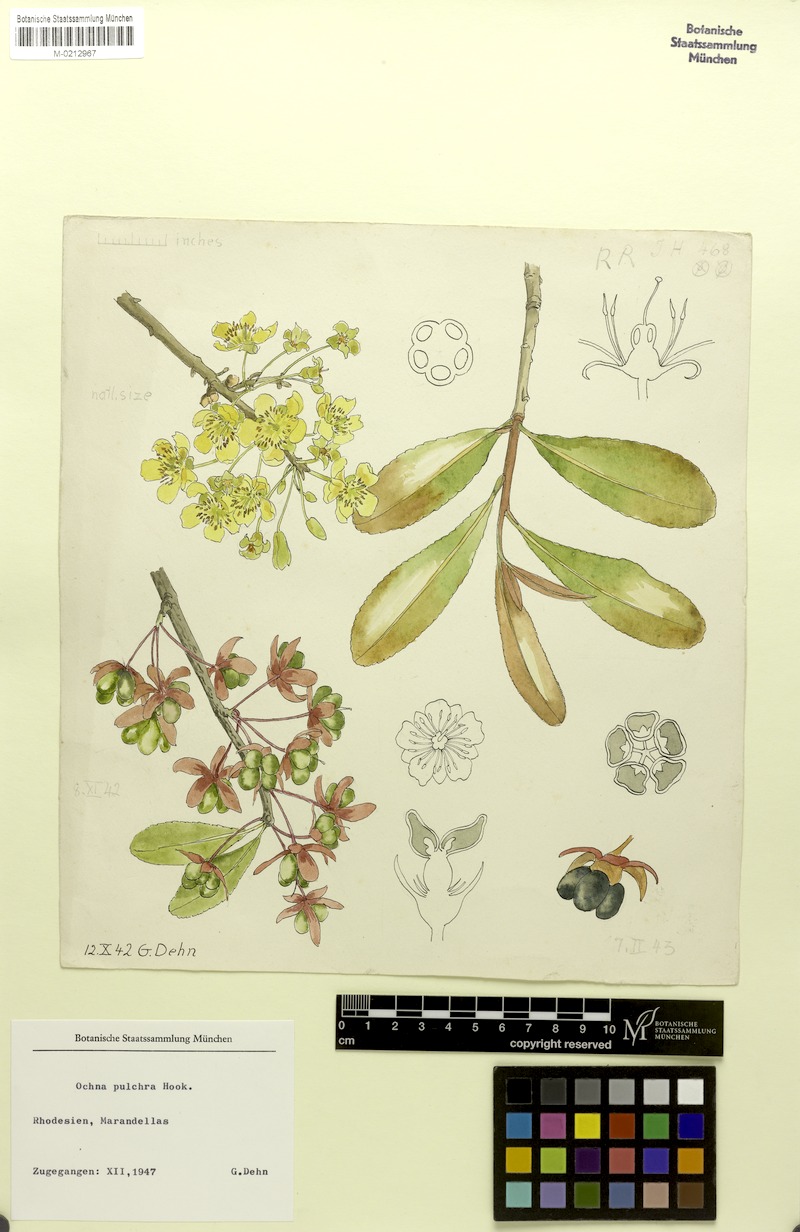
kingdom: Plantae
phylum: Tracheophyta
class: Magnoliopsida
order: Malpighiales
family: Ochnaceae
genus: Ochna
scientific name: Ochna pulchra
